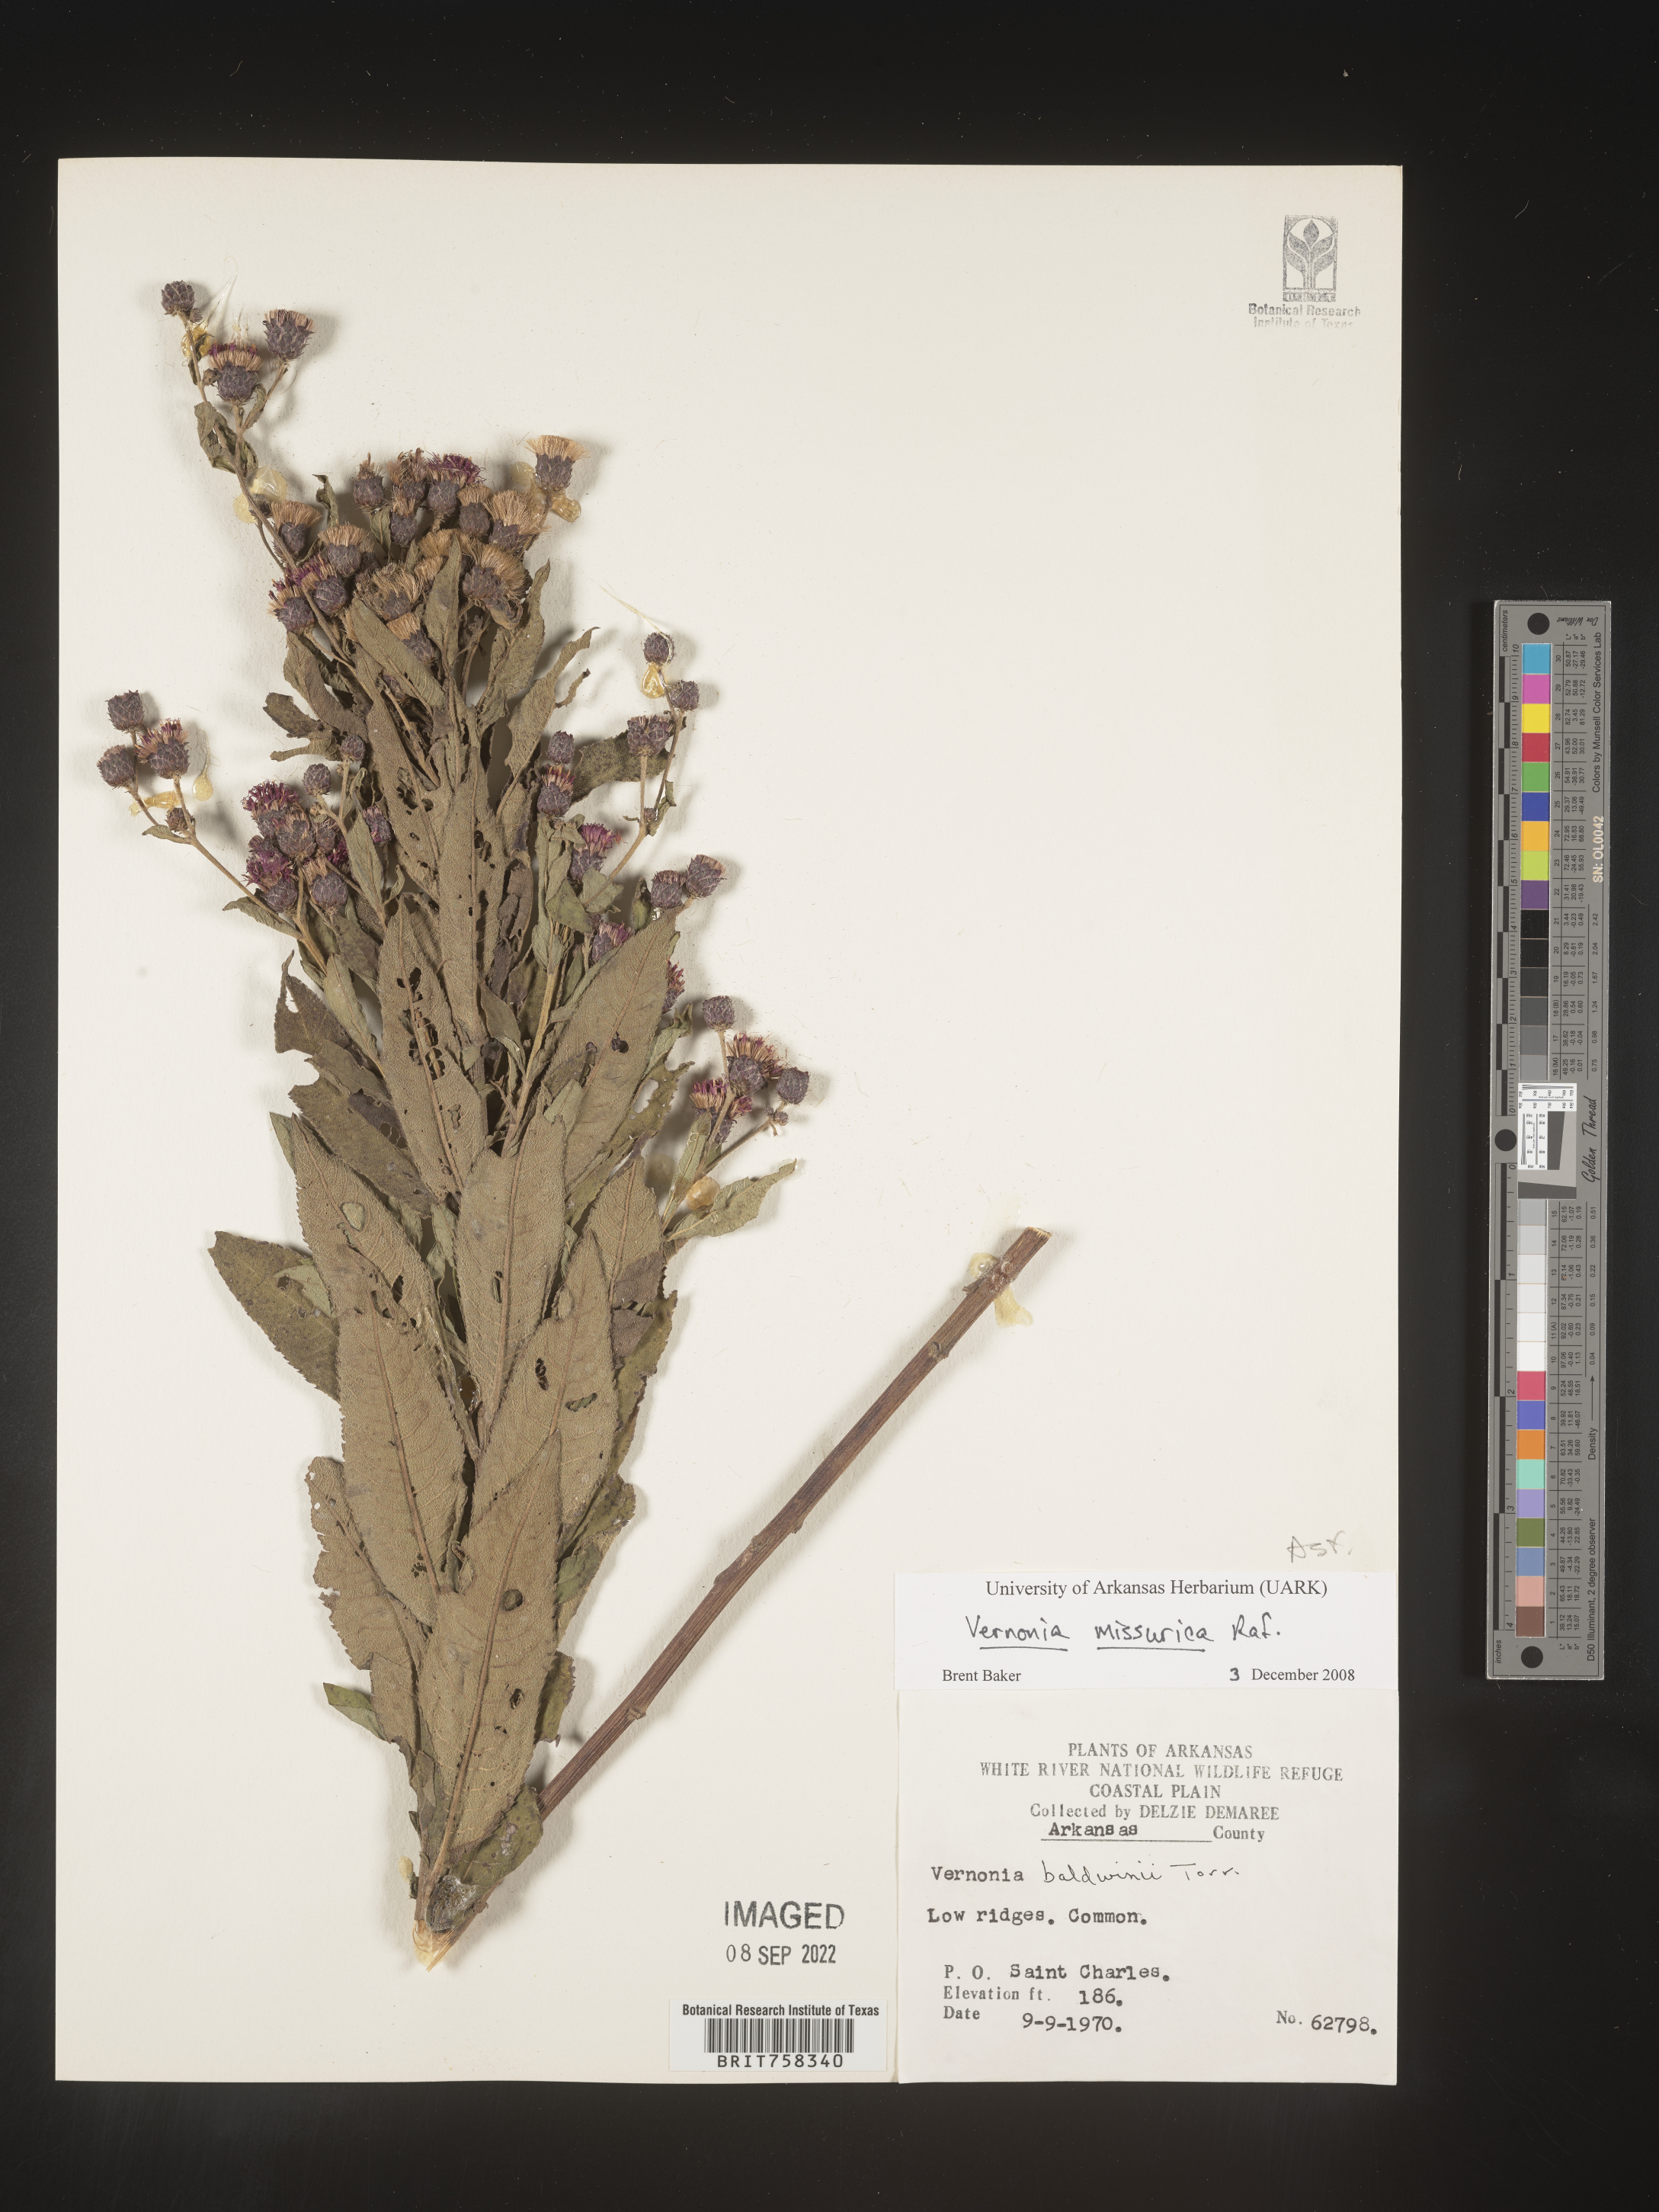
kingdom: Plantae
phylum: Tracheophyta
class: Magnoliopsida
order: Asterales
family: Asteraceae
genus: Vernonia
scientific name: Vernonia missurica
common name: Missouri ironweed
